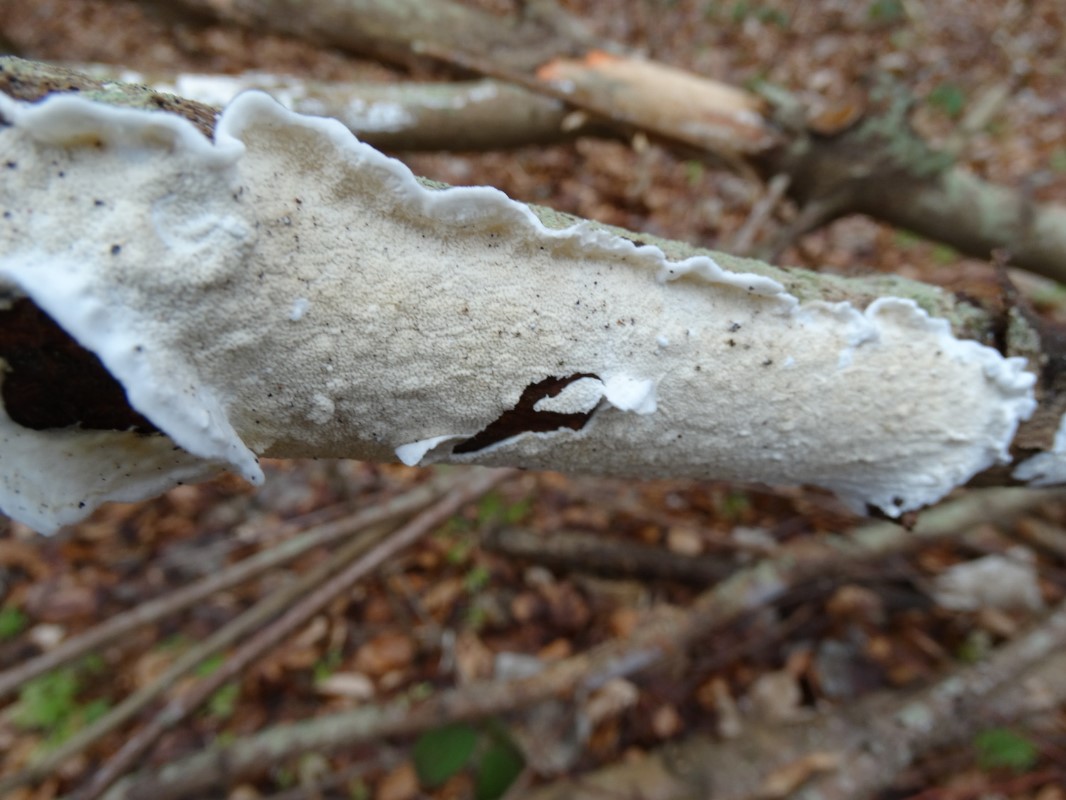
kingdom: Fungi
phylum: Basidiomycota
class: Agaricomycetes
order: Polyporales
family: Irpicaceae
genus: Byssomerulius
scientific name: Byssomerulius corium
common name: læder-åresvamp
